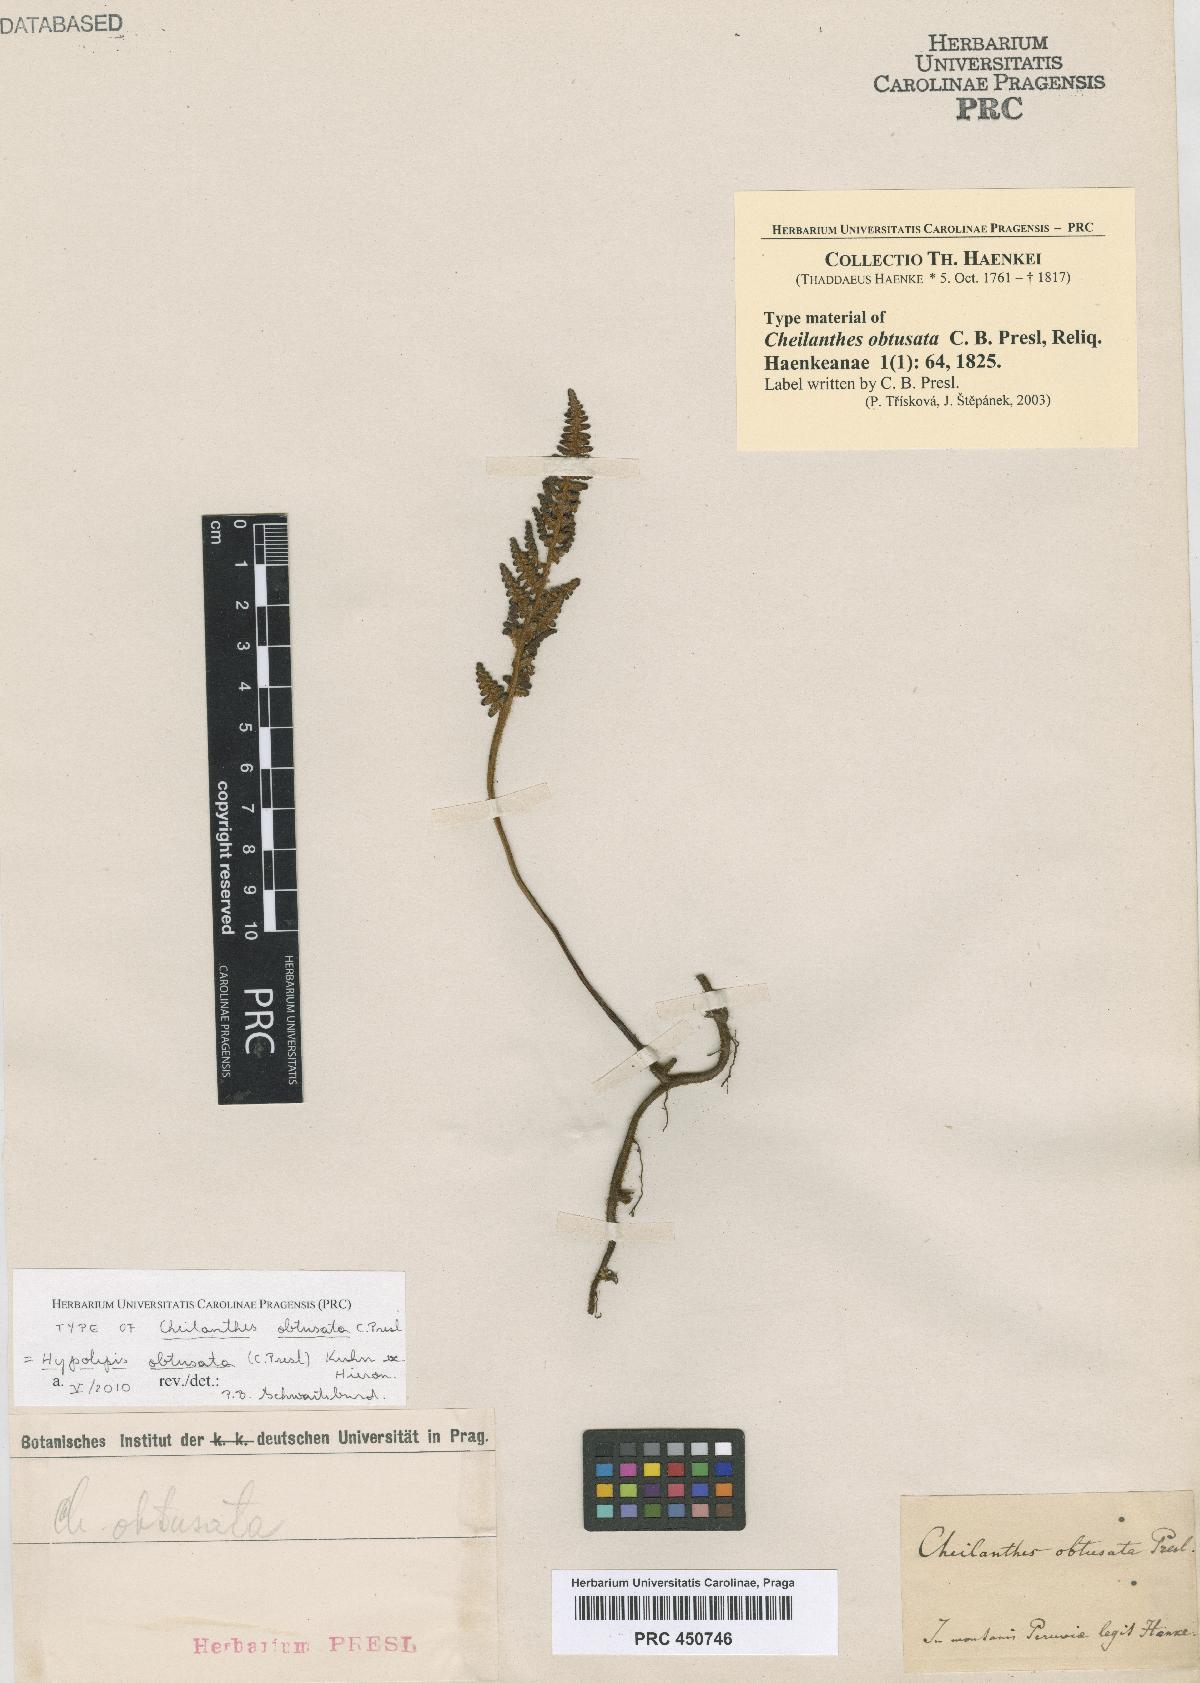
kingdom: Plantae
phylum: Tracheophyta
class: Polypodiopsida
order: Polypodiales
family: Dennstaedtiaceae
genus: Hypolepis
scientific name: Hypolepis obtusata
